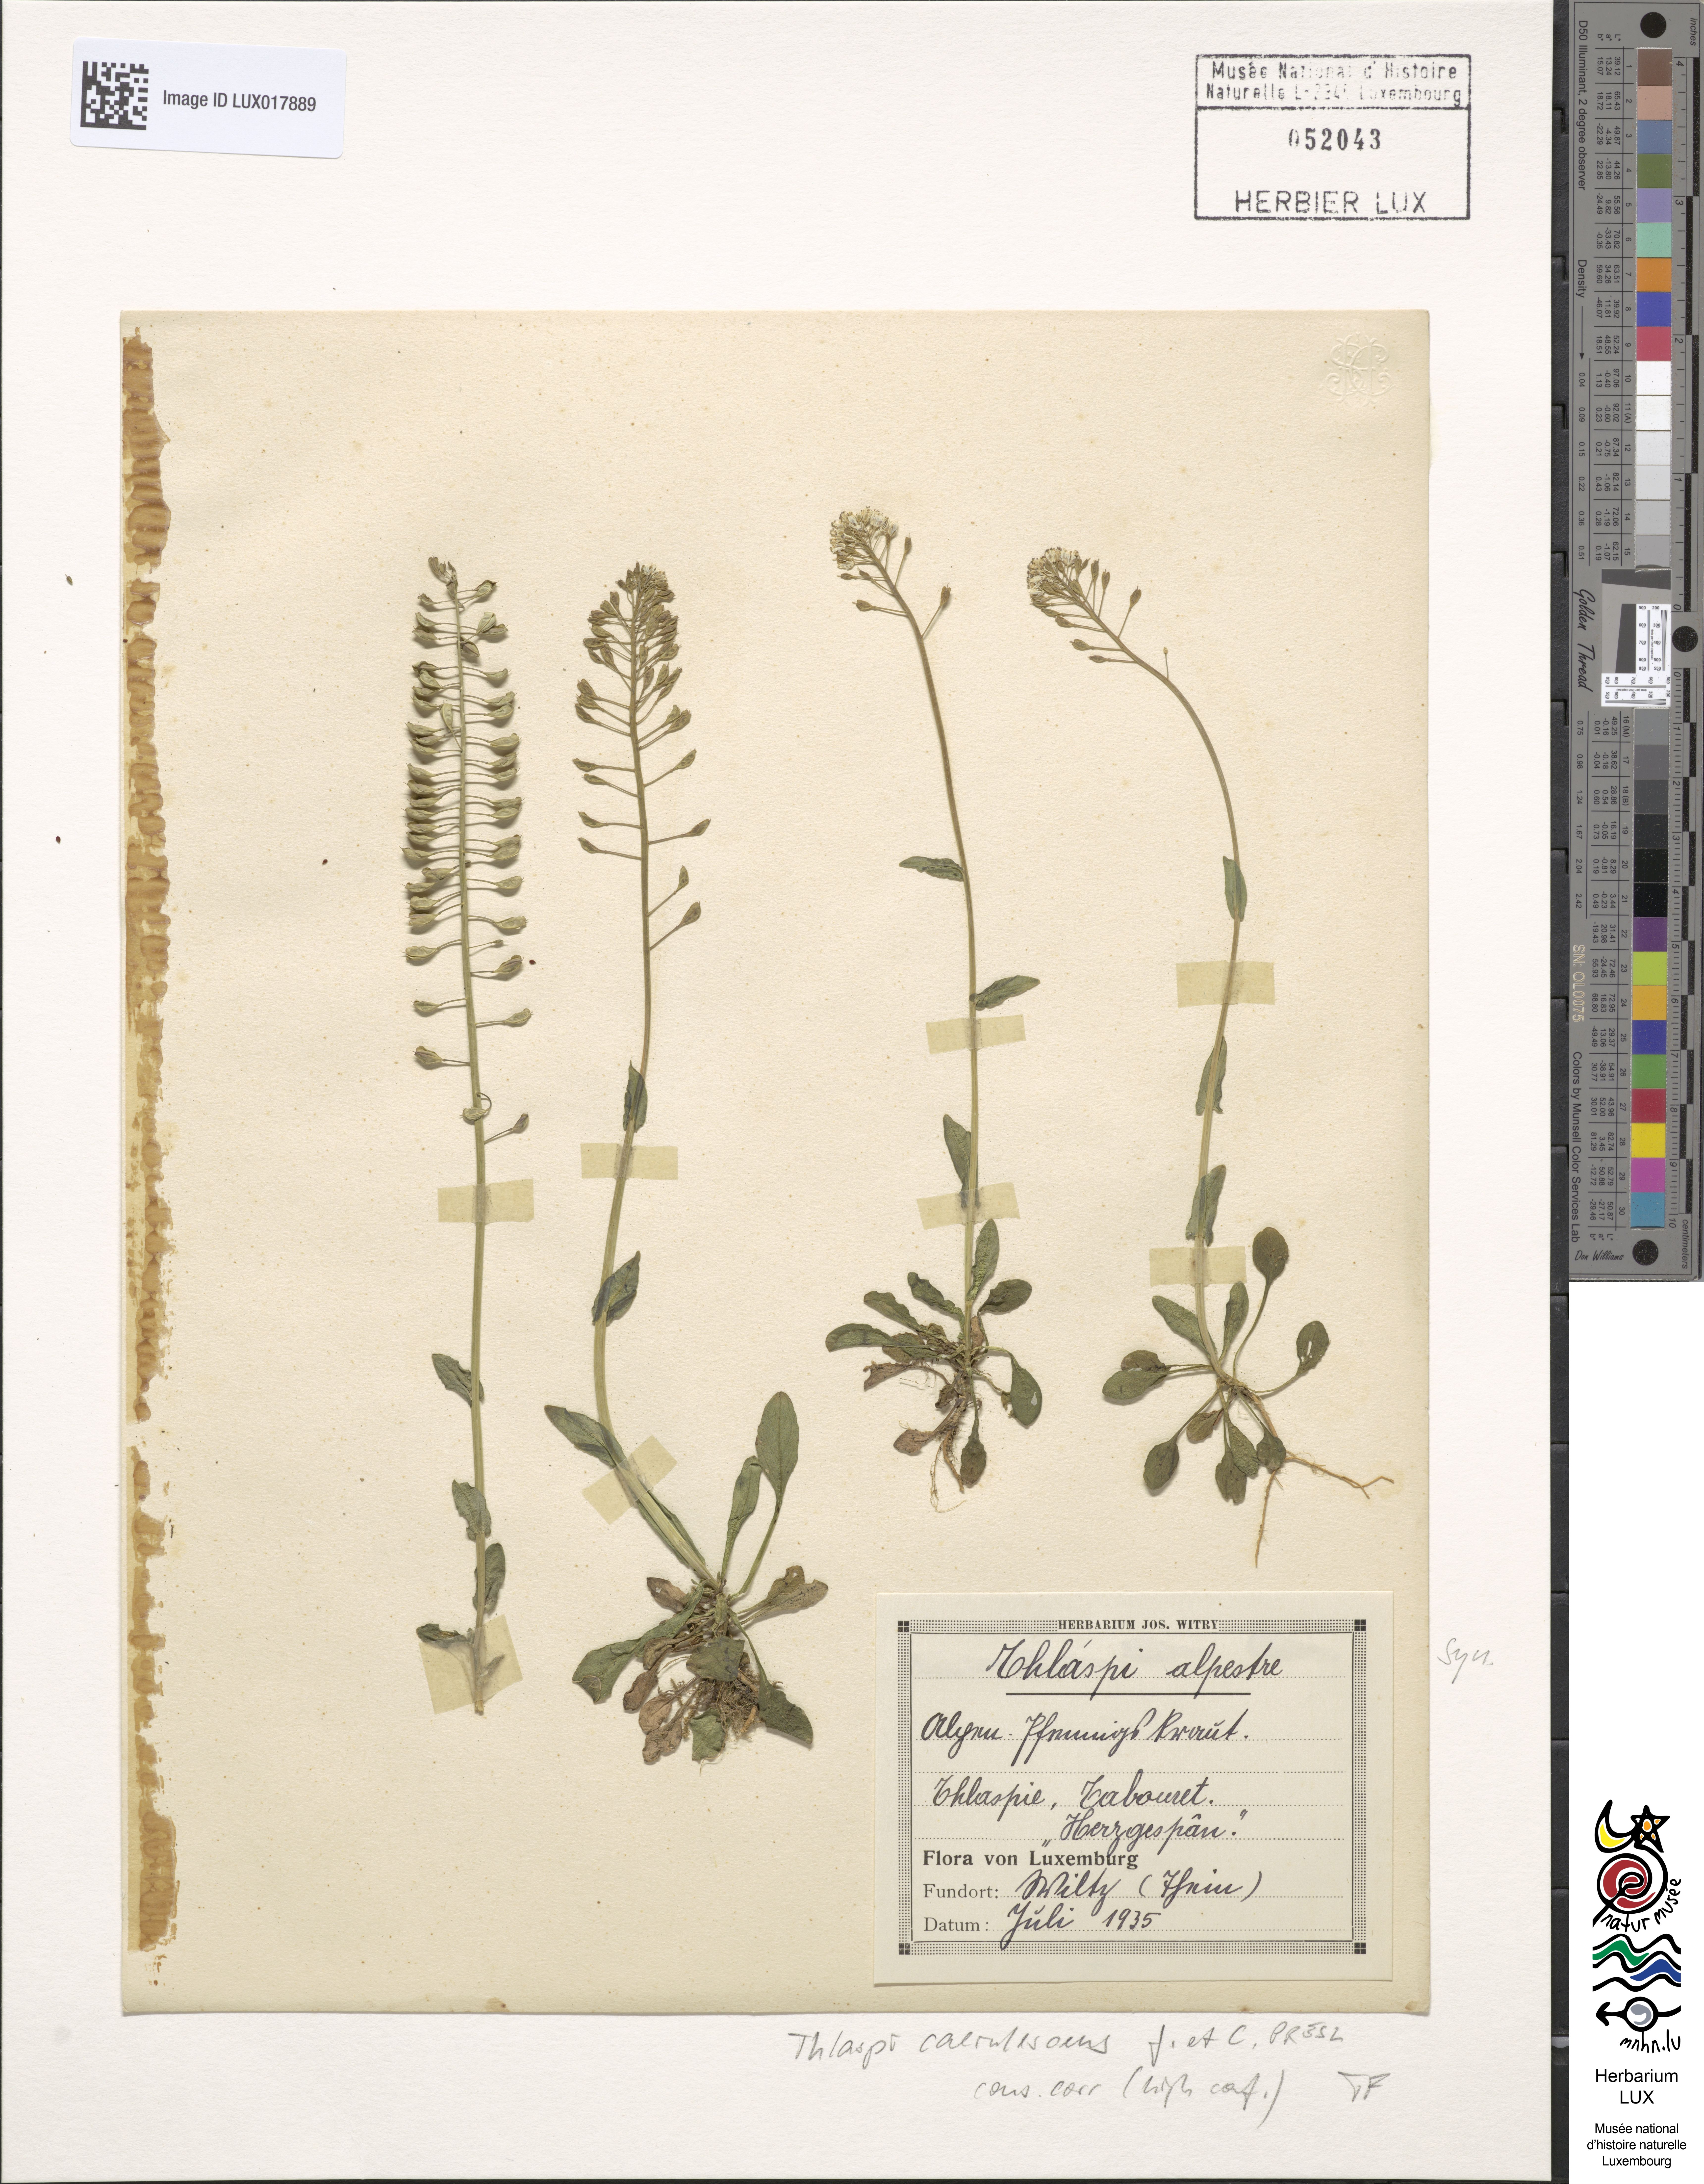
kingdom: Plantae
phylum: Tracheophyta
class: Magnoliopsida
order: Brassicales
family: Brassicaceae
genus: Noccaea
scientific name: Noccaea caerulescens
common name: Alpine pennycress
